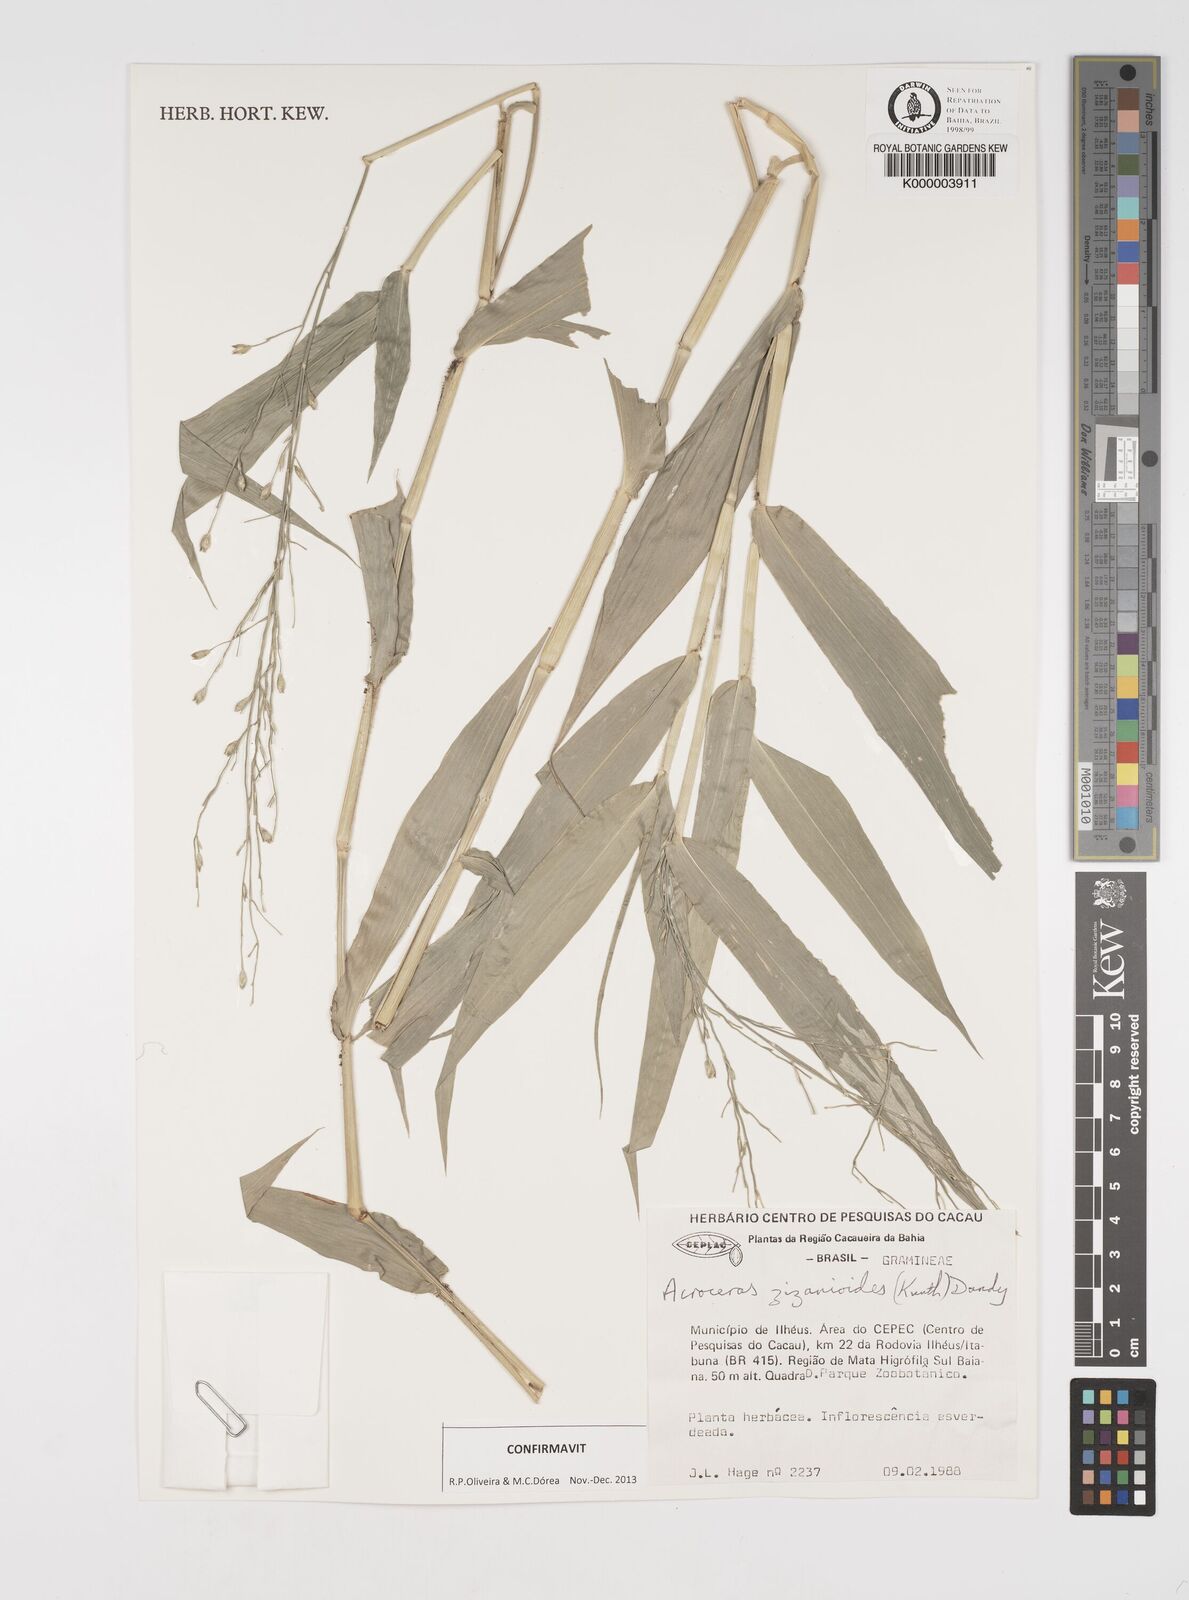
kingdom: Plantae
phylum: Tracheophyta
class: Liliopsida
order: Poales
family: Poaceae
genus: Acroceras
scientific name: Acroceras zizanioides
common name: Oat grass
